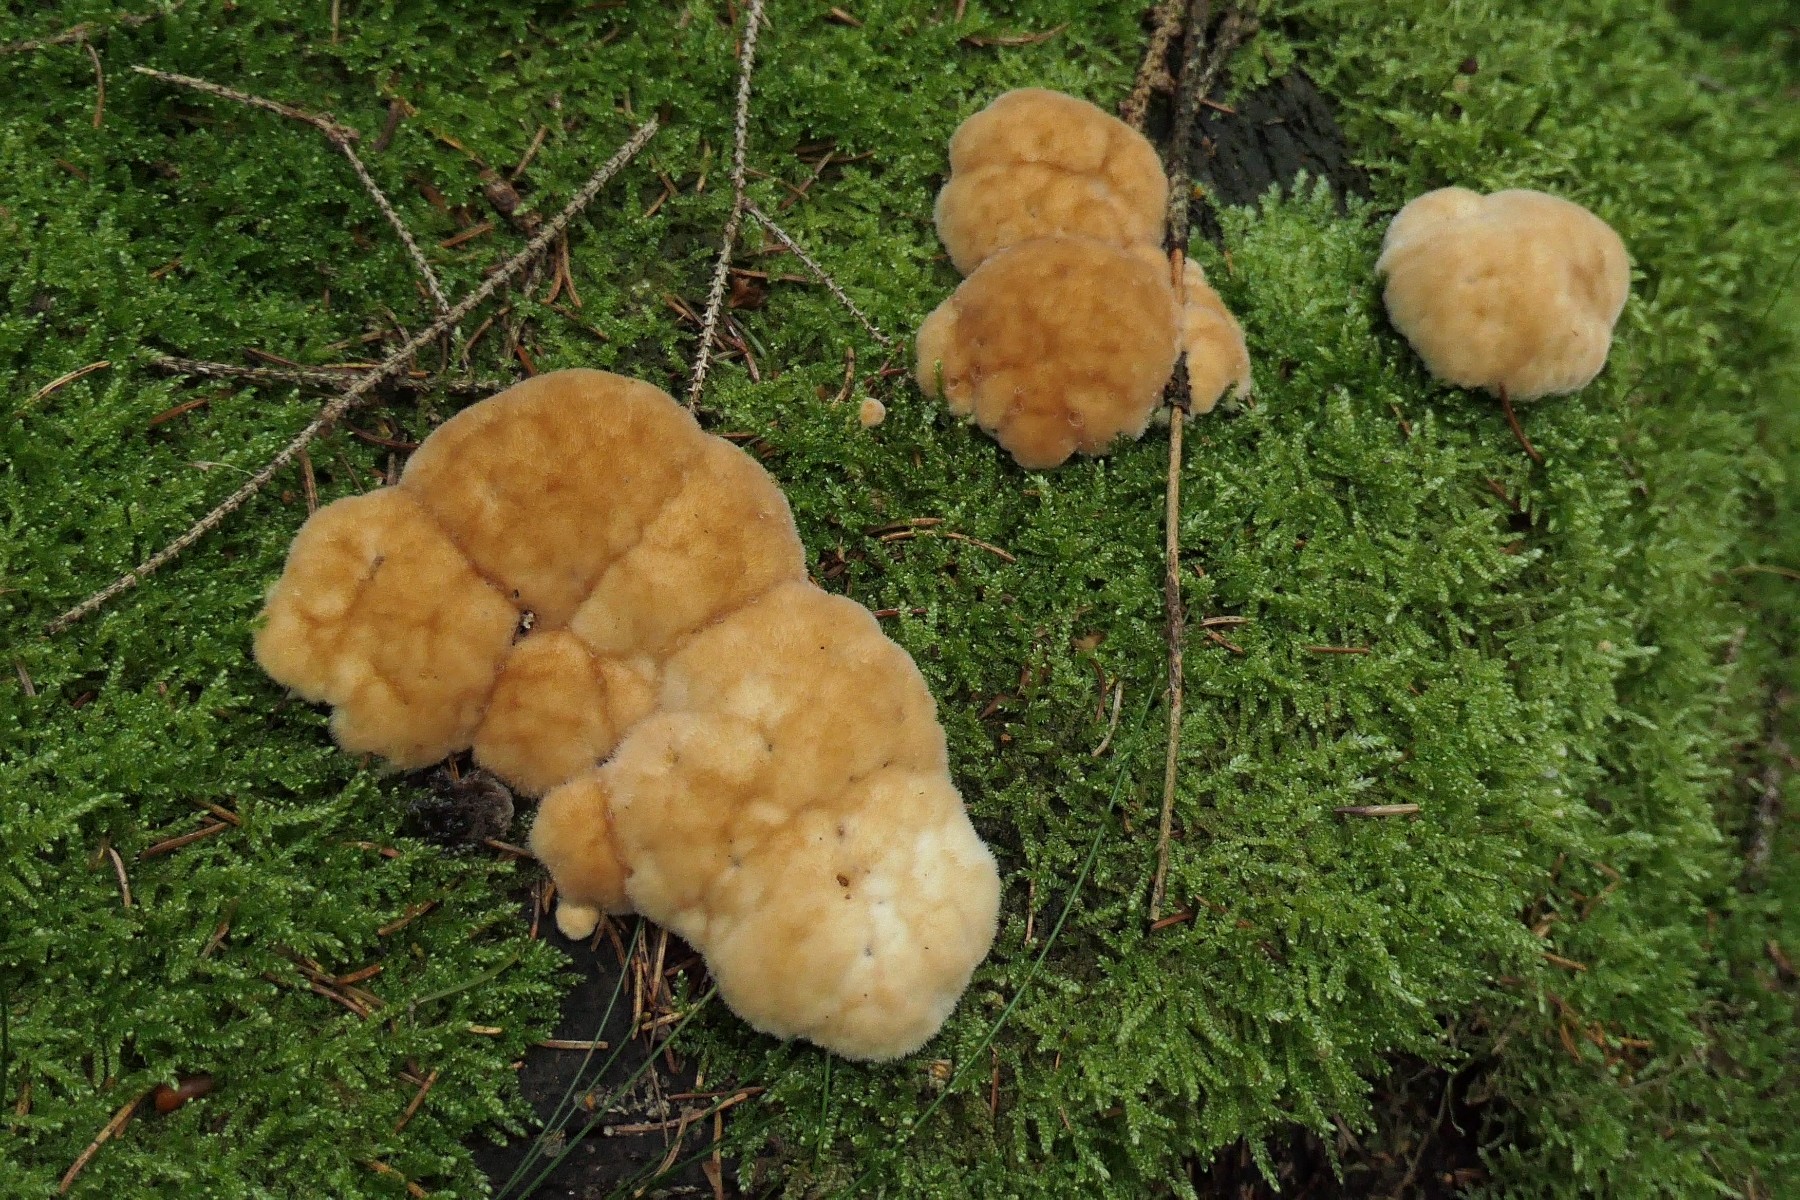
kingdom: Fungi
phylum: Basidiomycota
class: Agaricomycetes
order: Polyporales
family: Dacryobolaceae
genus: Postia
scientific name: Postia ptychogaster
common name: støvende kødporesvamp
